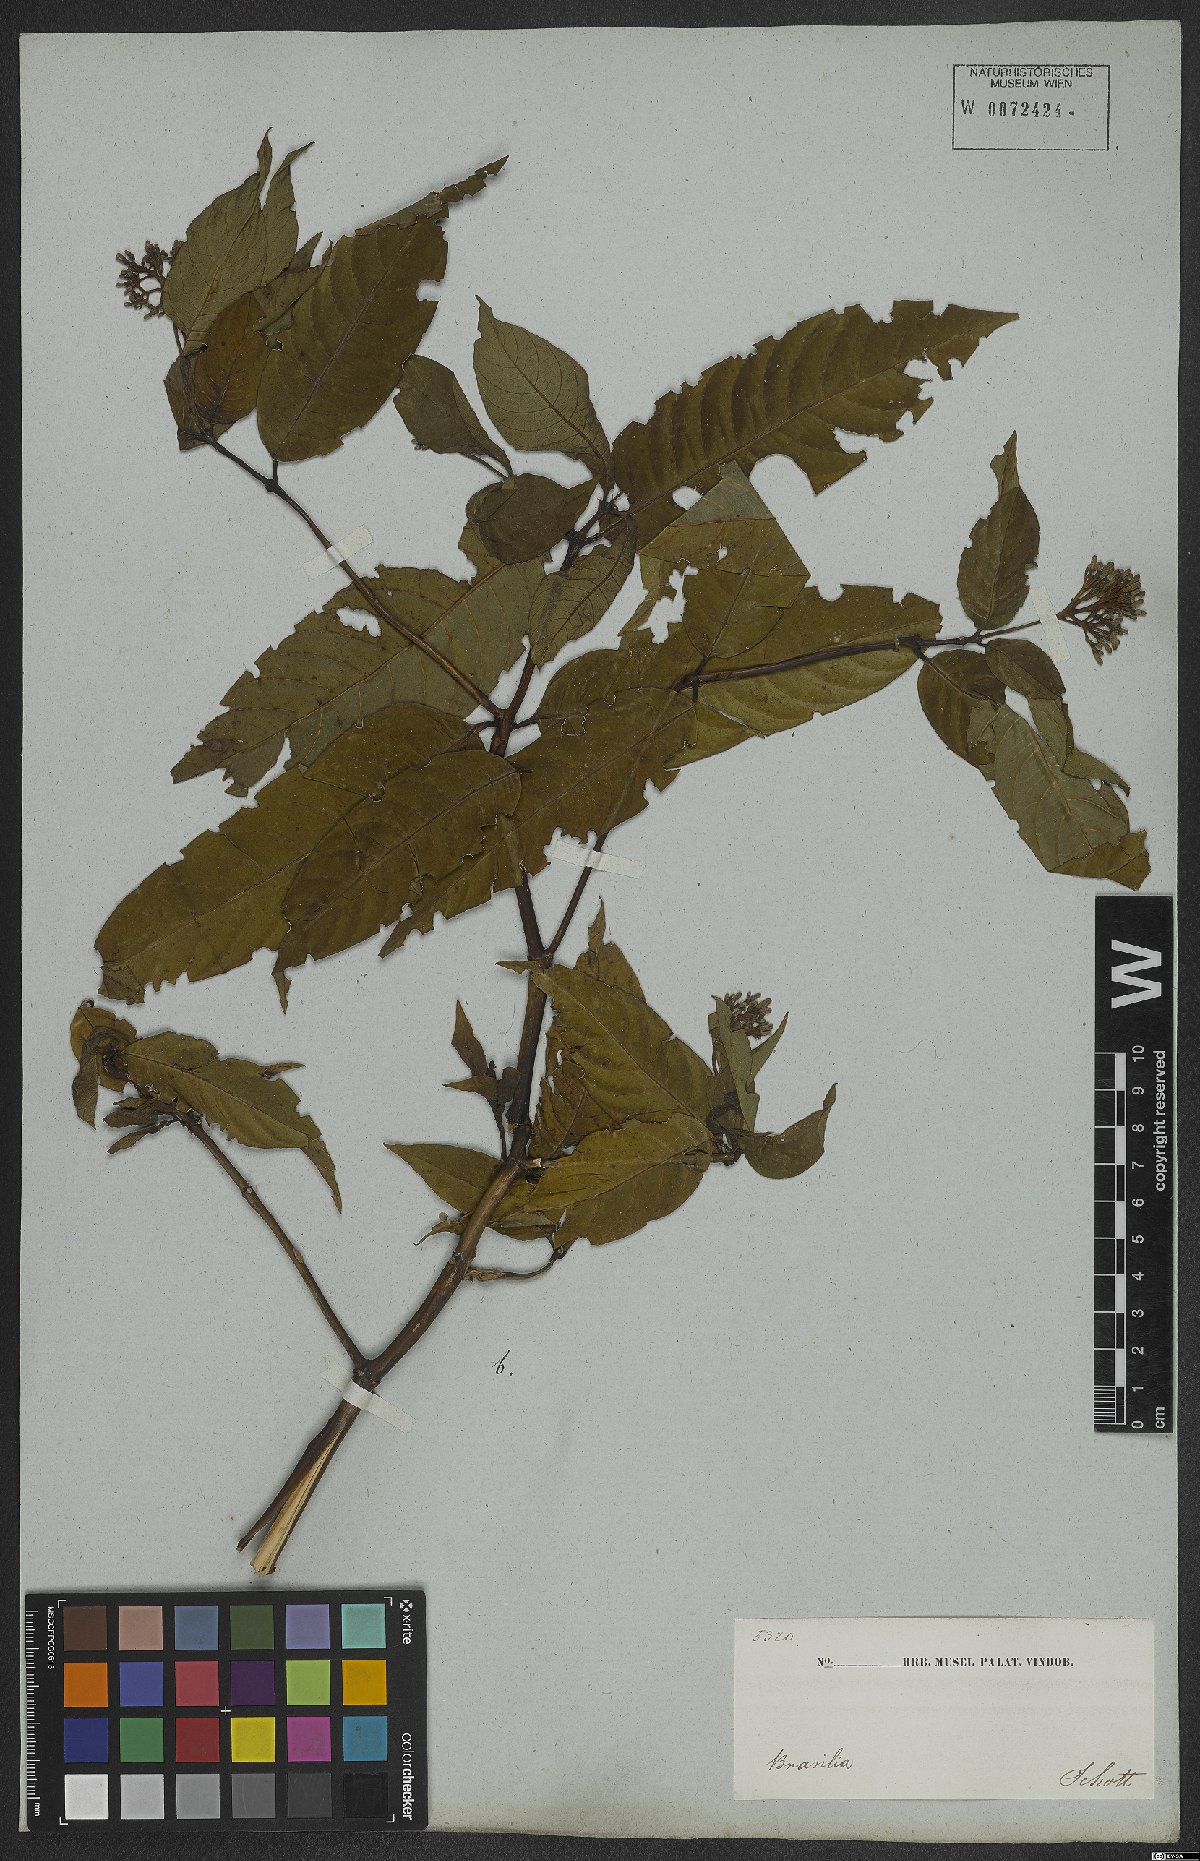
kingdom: Plantae
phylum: Tracheophyta
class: Magnoliopsida
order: Gentianales
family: Rubiaceae
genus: Palicourea
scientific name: Palicourea marcgravii
